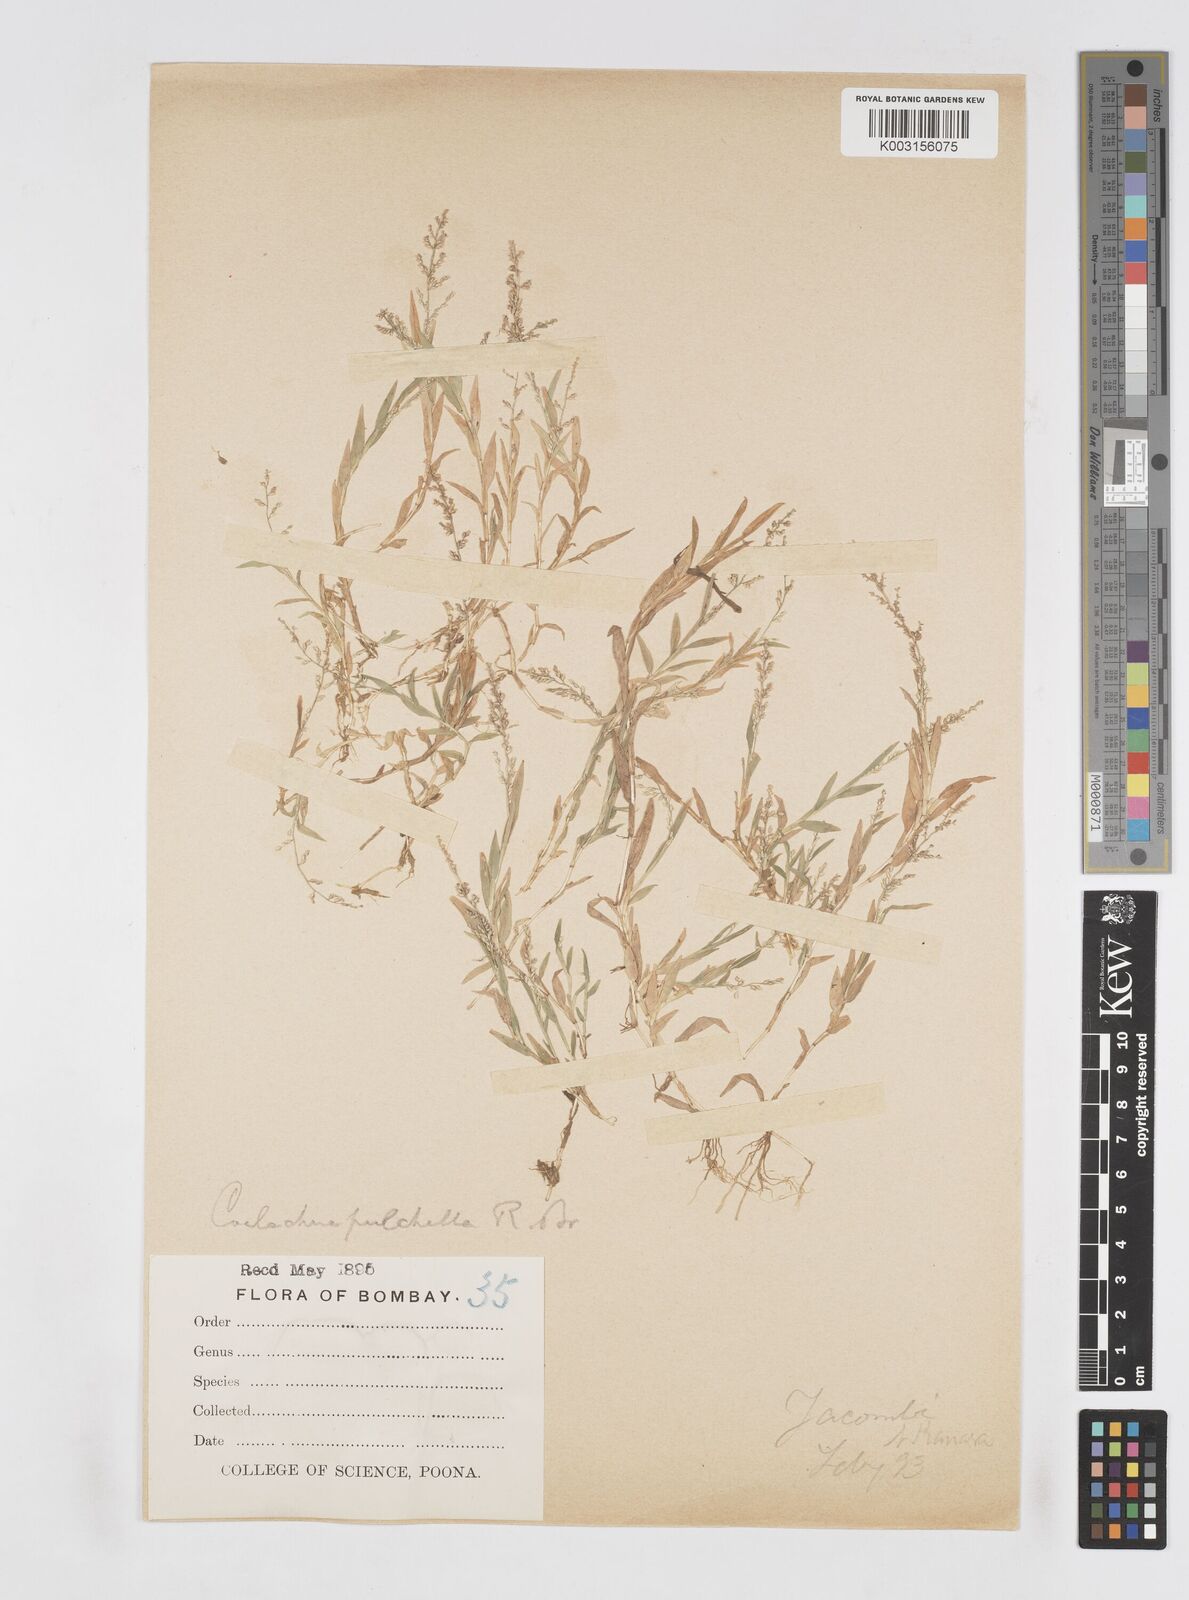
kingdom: Plantae
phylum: Tracheophyta
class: Liliopsida
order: Poales
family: Poaceae
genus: Coelachne
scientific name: Coelachne simpliciuscula
